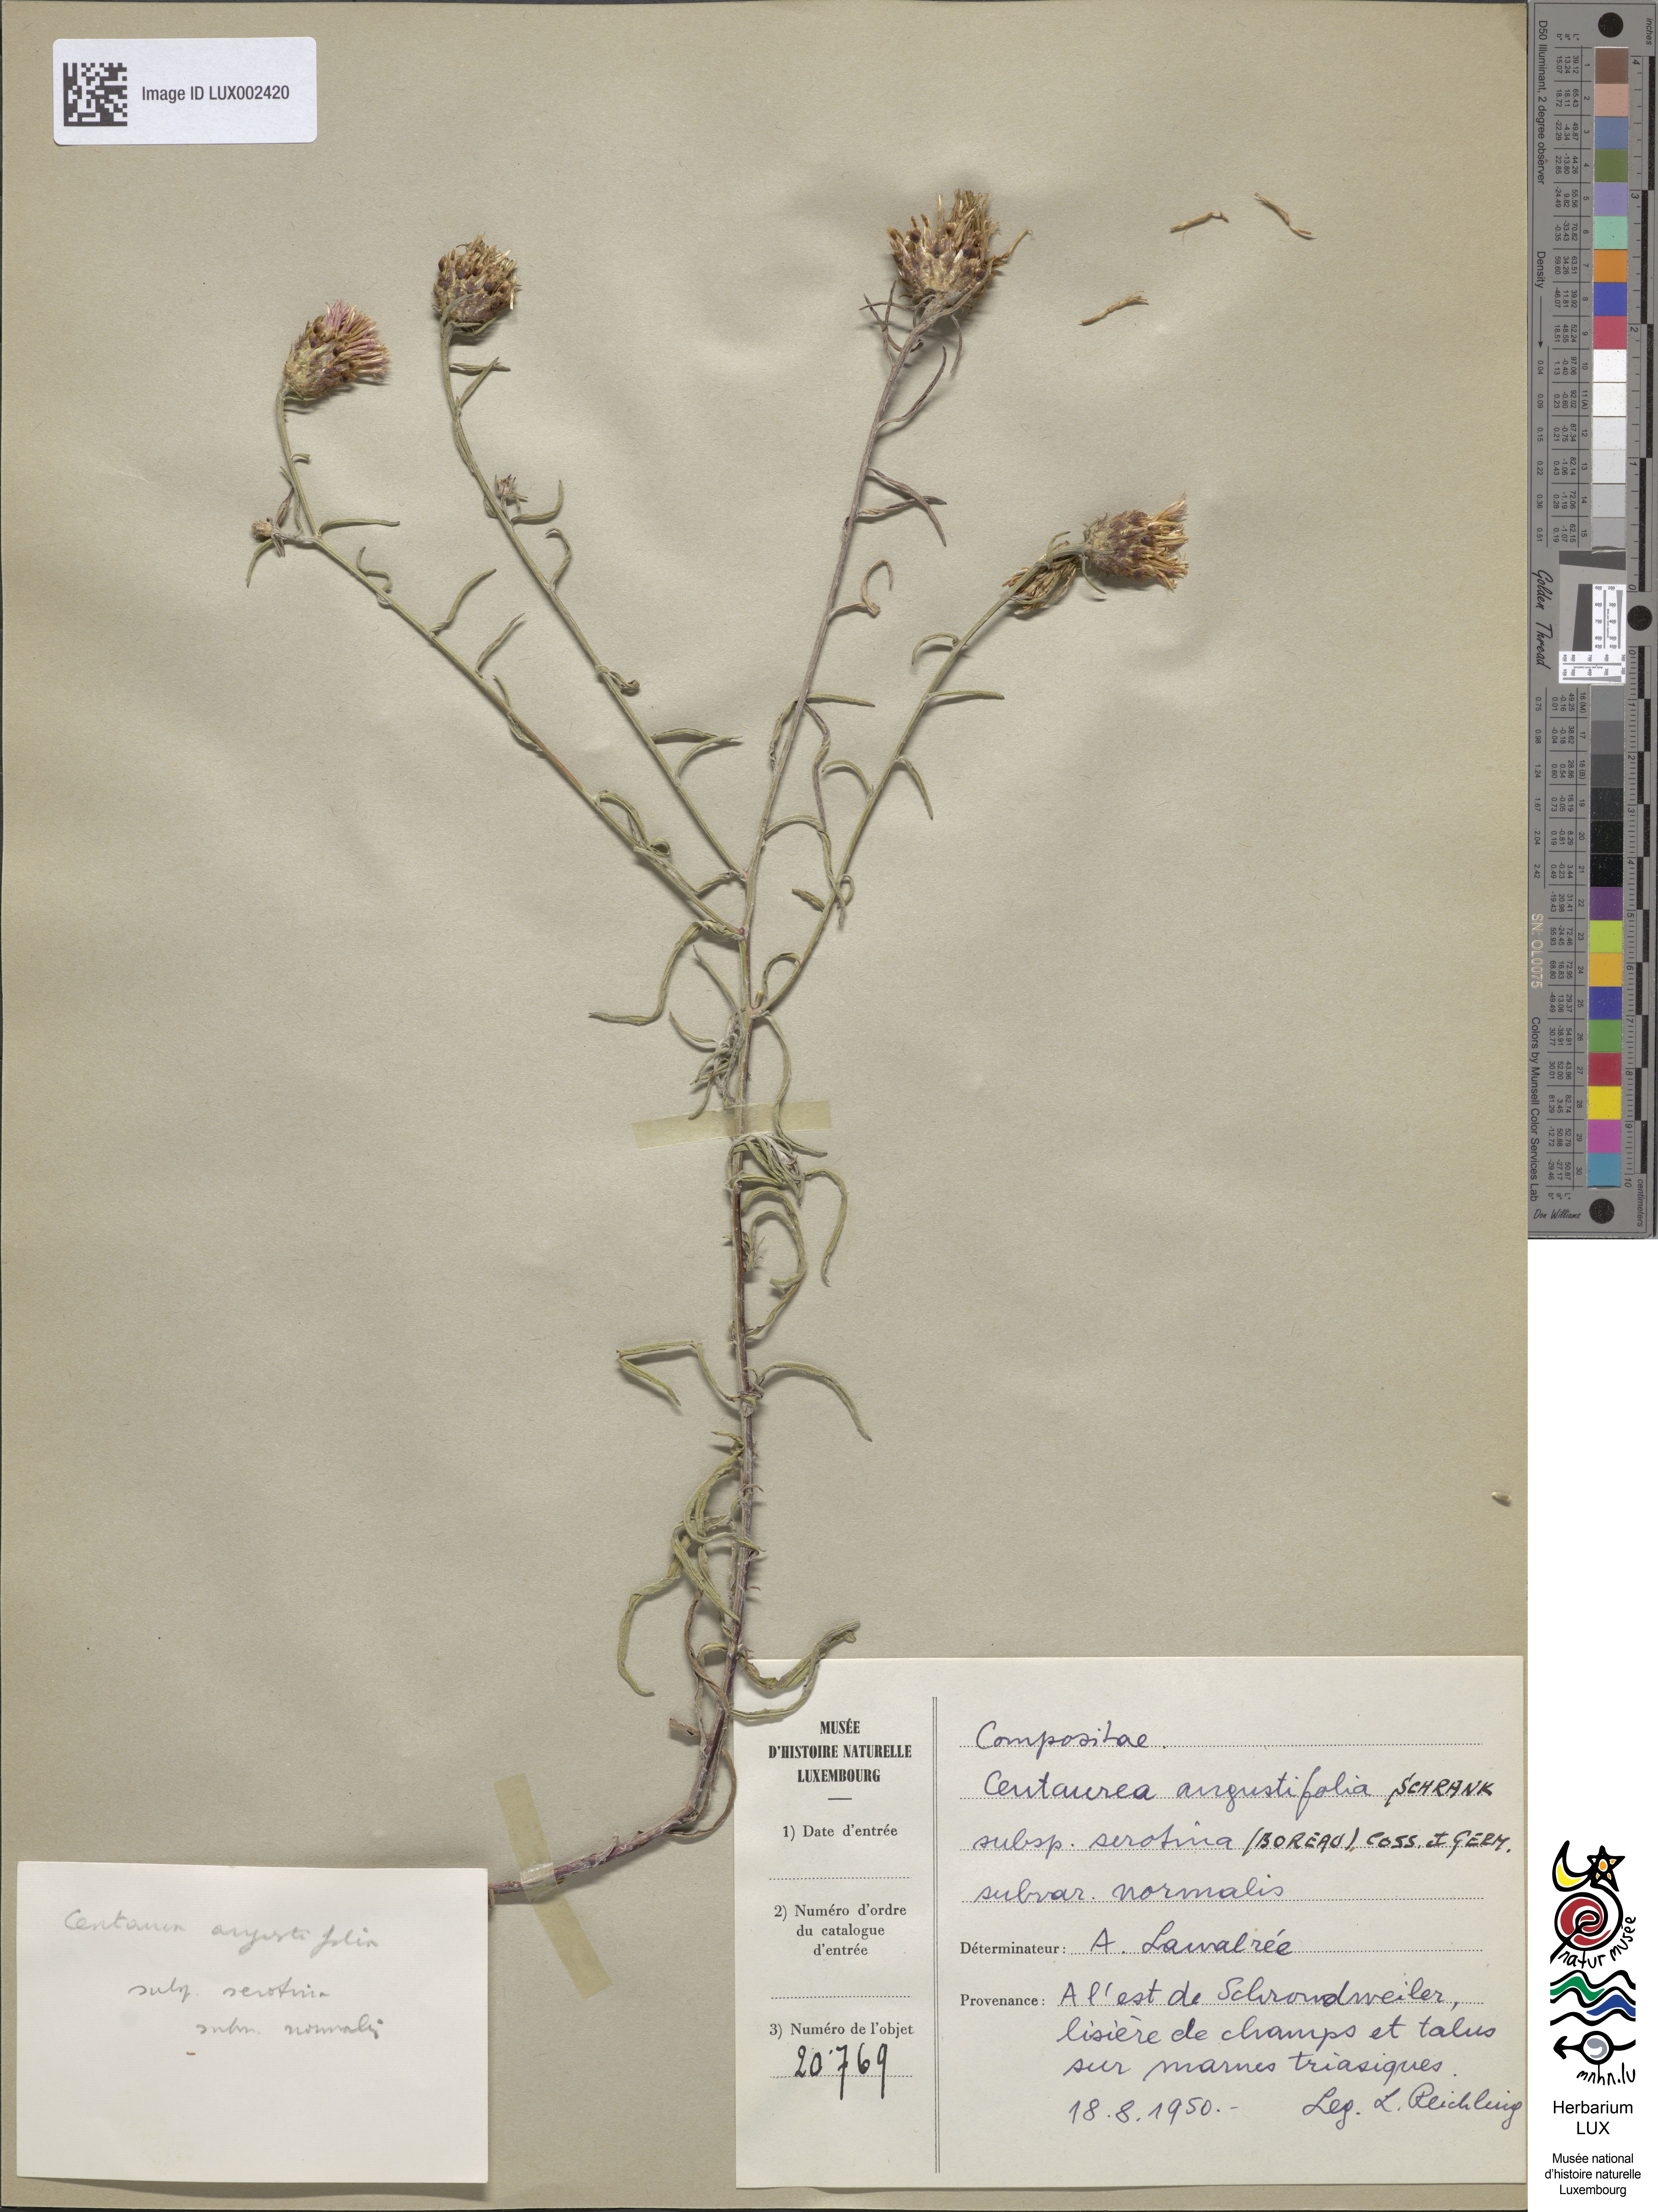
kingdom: Plantae
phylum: Tracheophyta
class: Magnoliopsida
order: Asterales
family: Asteraceae
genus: Centaurea
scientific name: Centaurea
